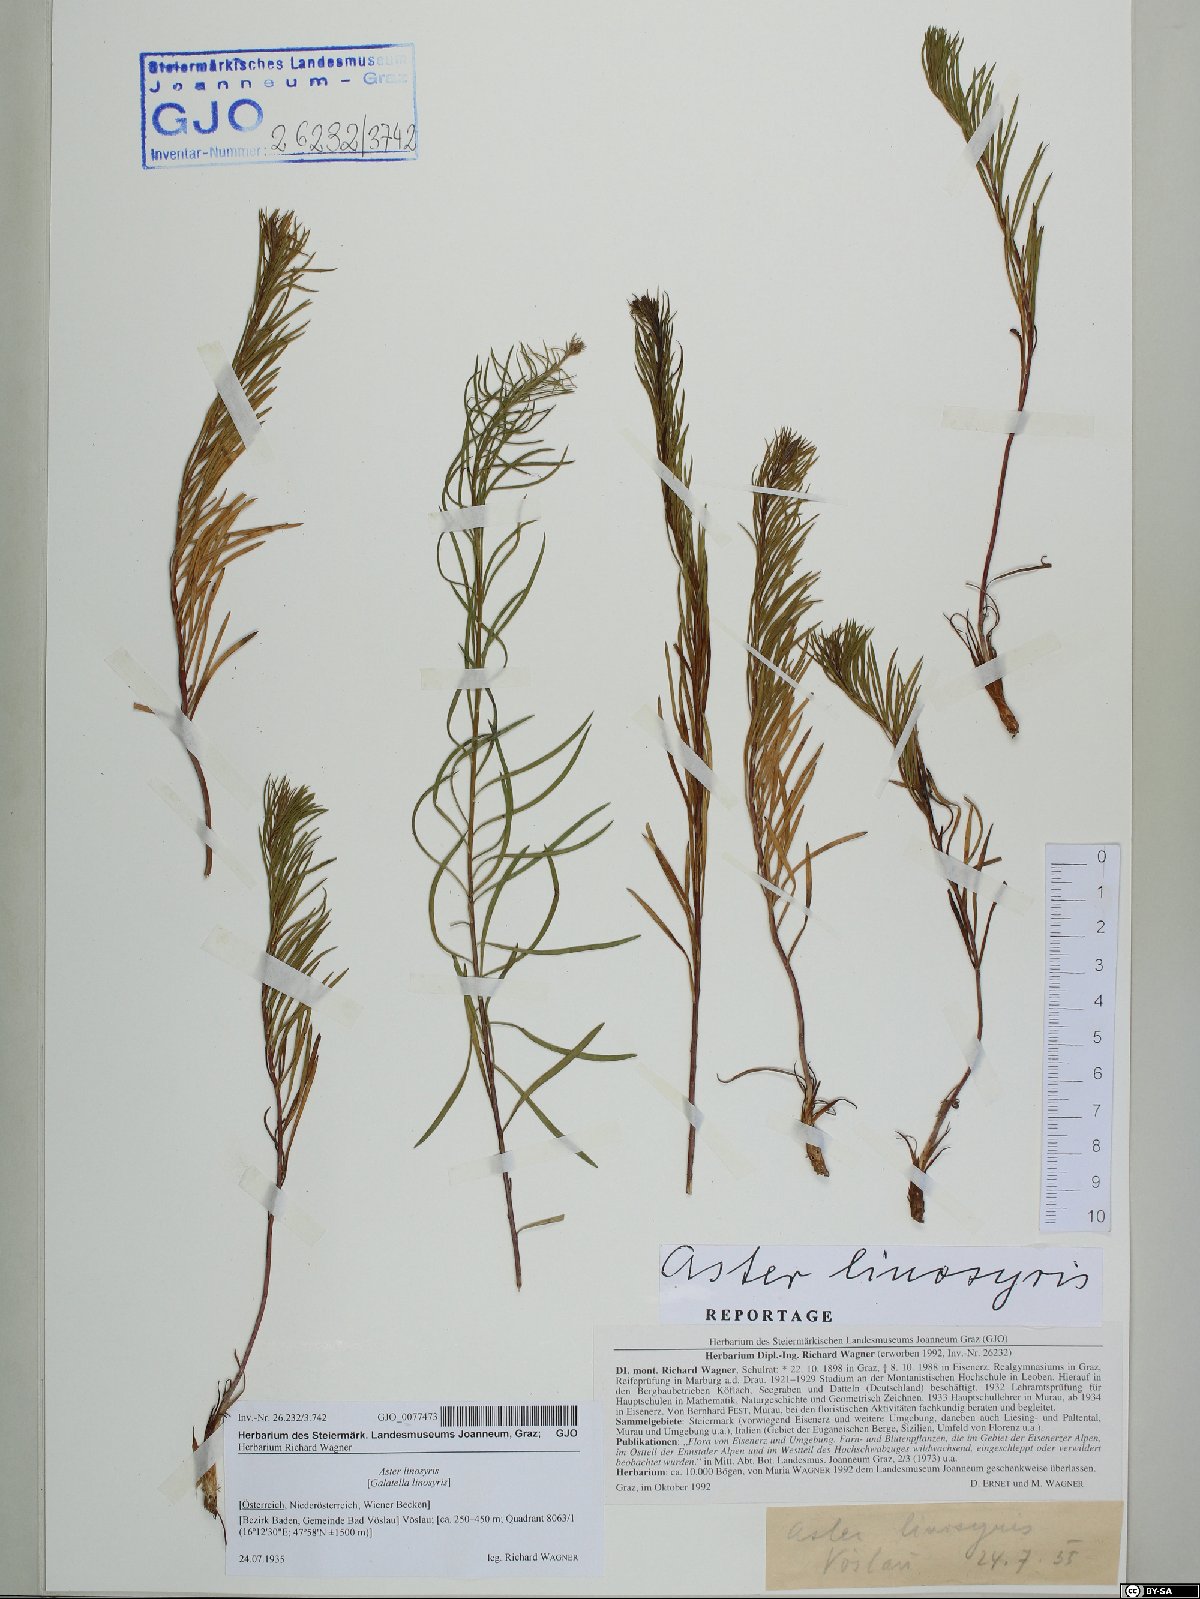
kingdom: Plantae
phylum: Tracheophyta
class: Magnoliopsida
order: Asterales
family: Asteraceae
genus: Galatella
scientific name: Galatella linosyris
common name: Goldilocks aster
